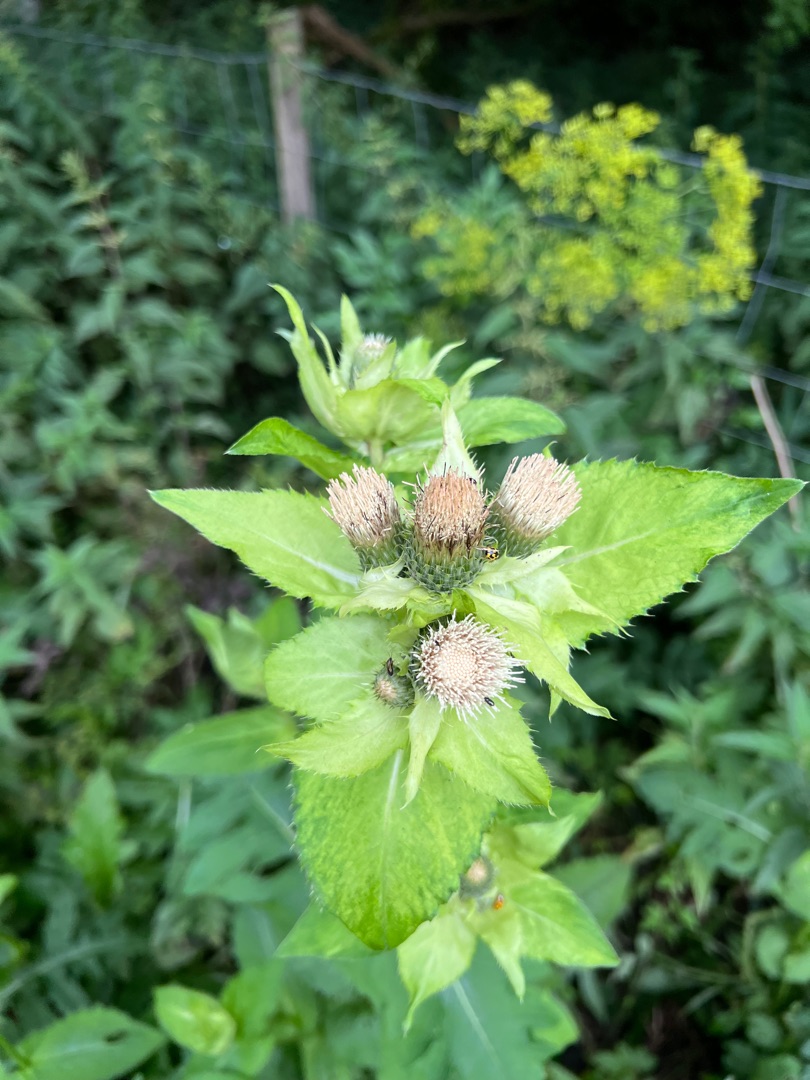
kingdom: Plantae
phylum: Tracheophyta
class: Magnoliopsida
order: Asterales
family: Asteraceae
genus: Cirsium
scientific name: Cirsium oleraceum
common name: Kål-tidsel
